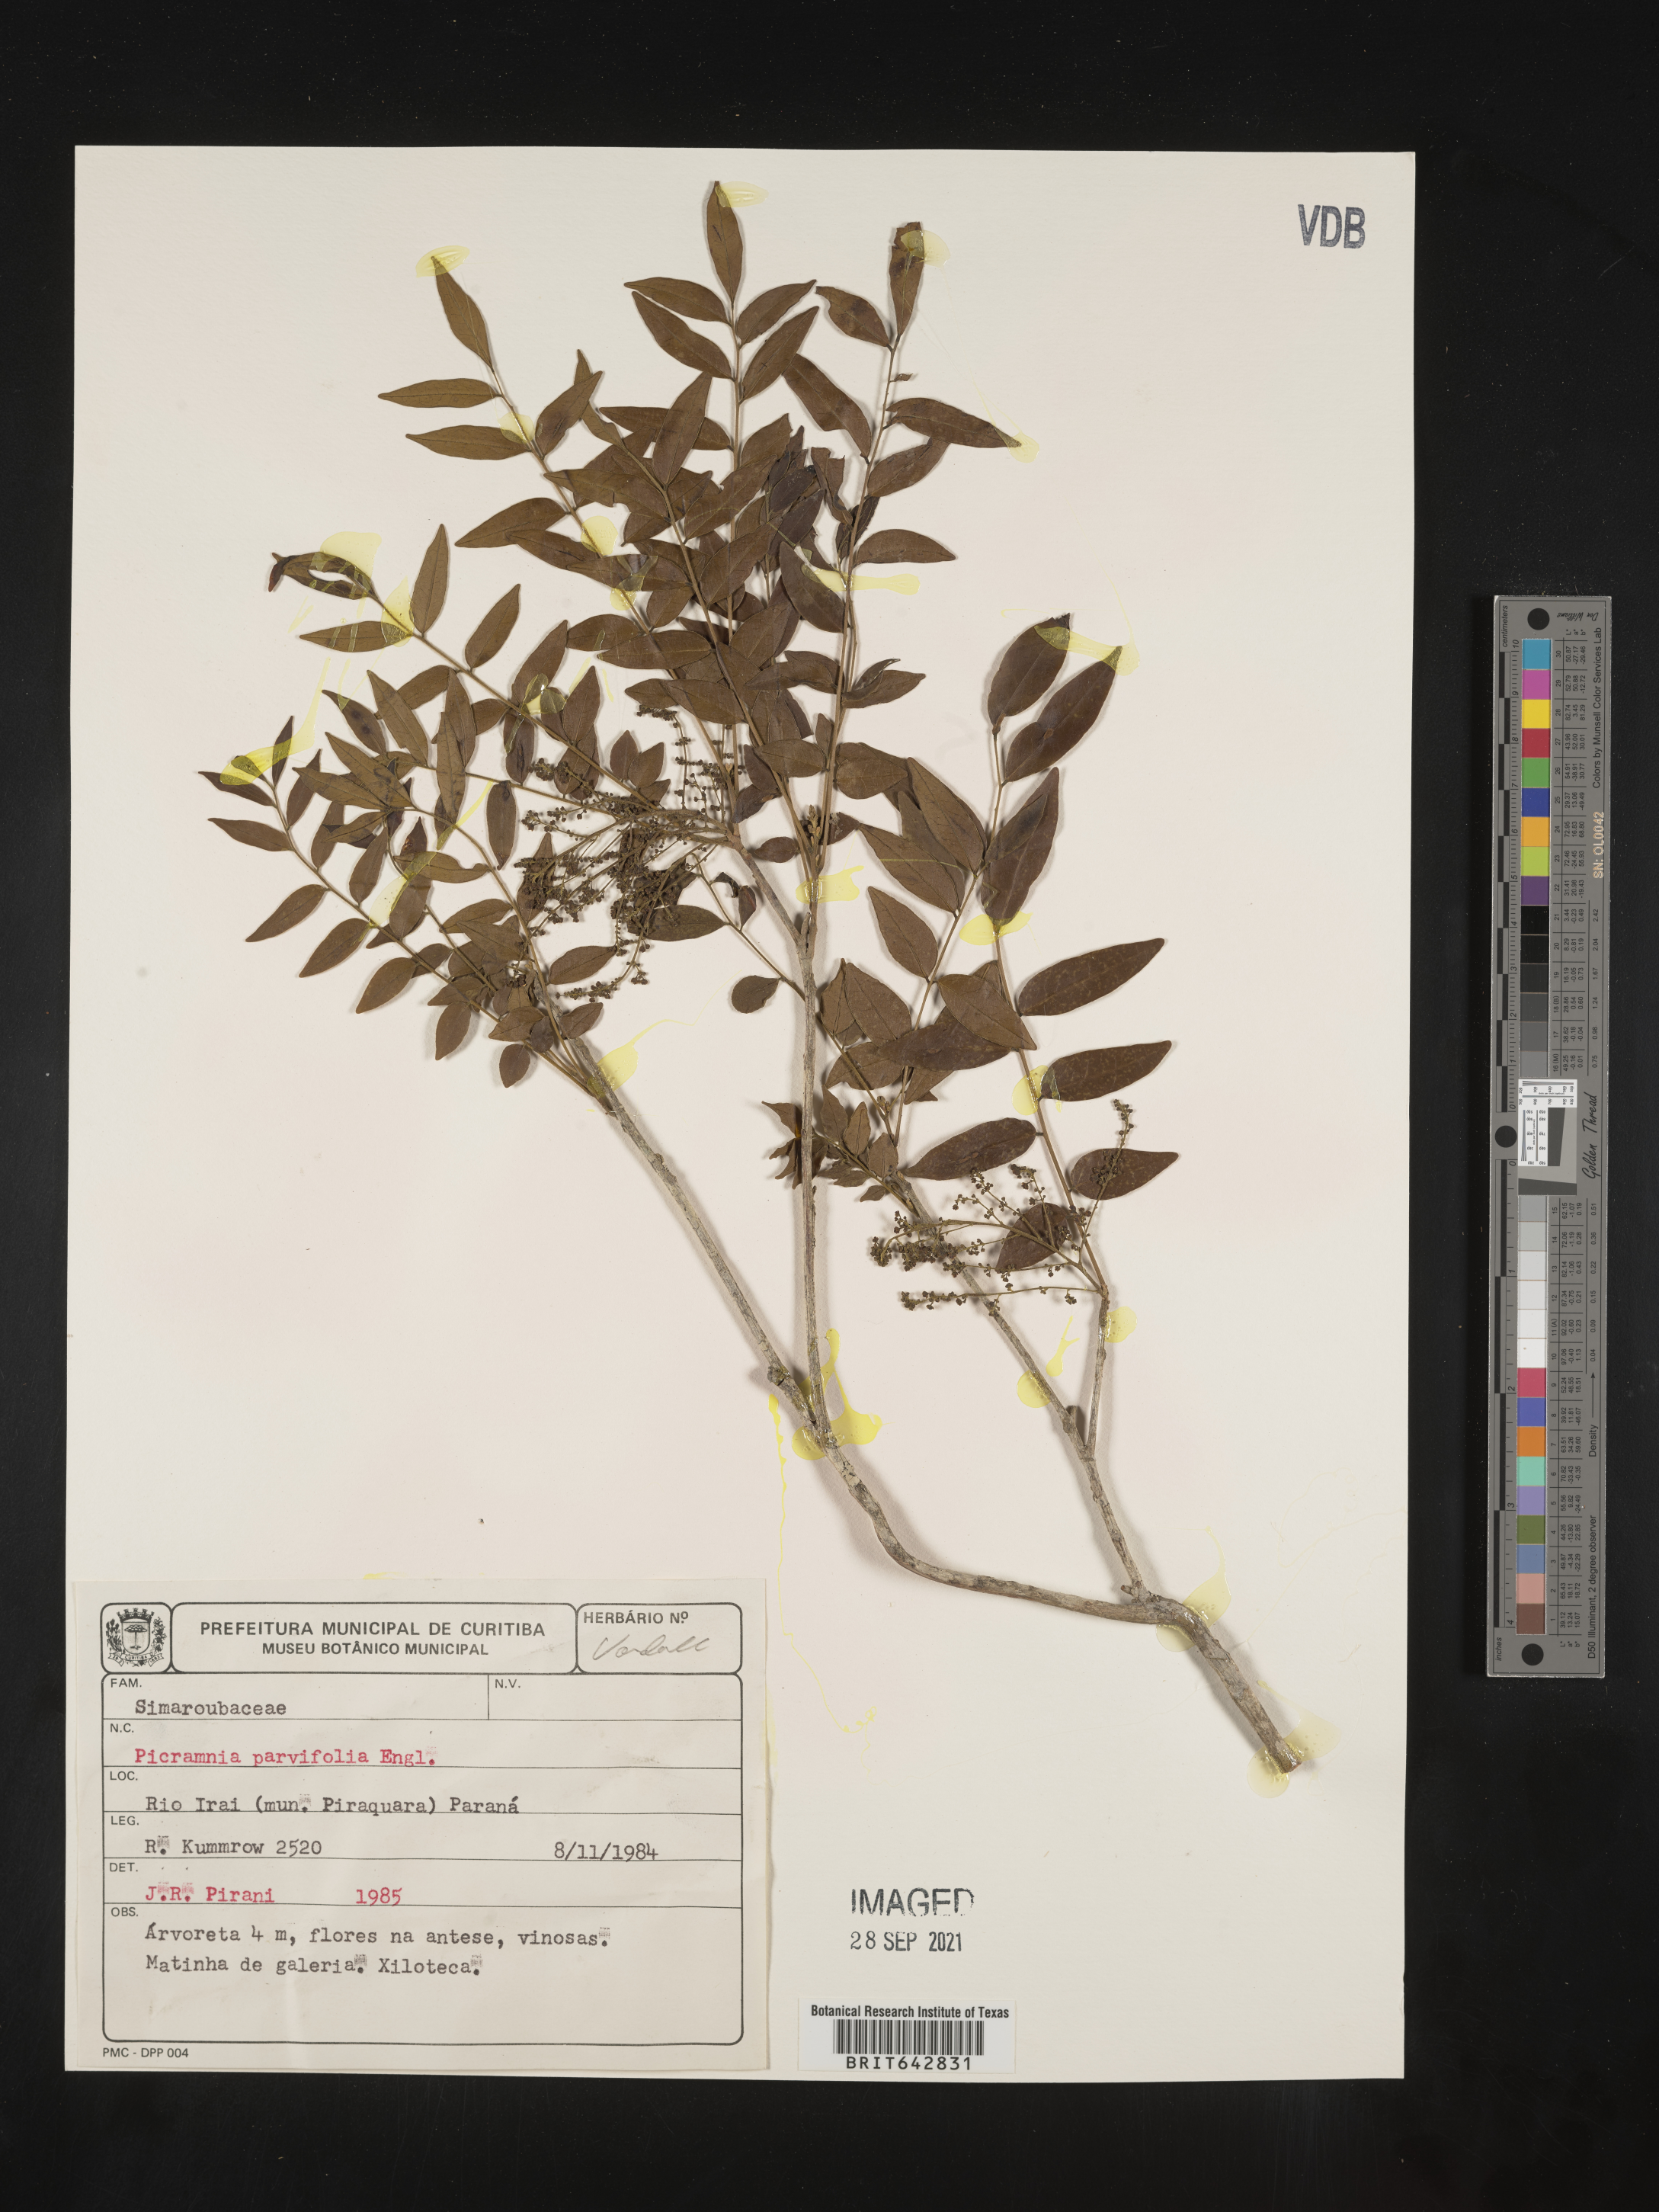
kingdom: Plantae
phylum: Tracheophyta
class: Magnoliopsida
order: Picramniales
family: Picramniaceae
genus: Picramnia
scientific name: Picramnia
